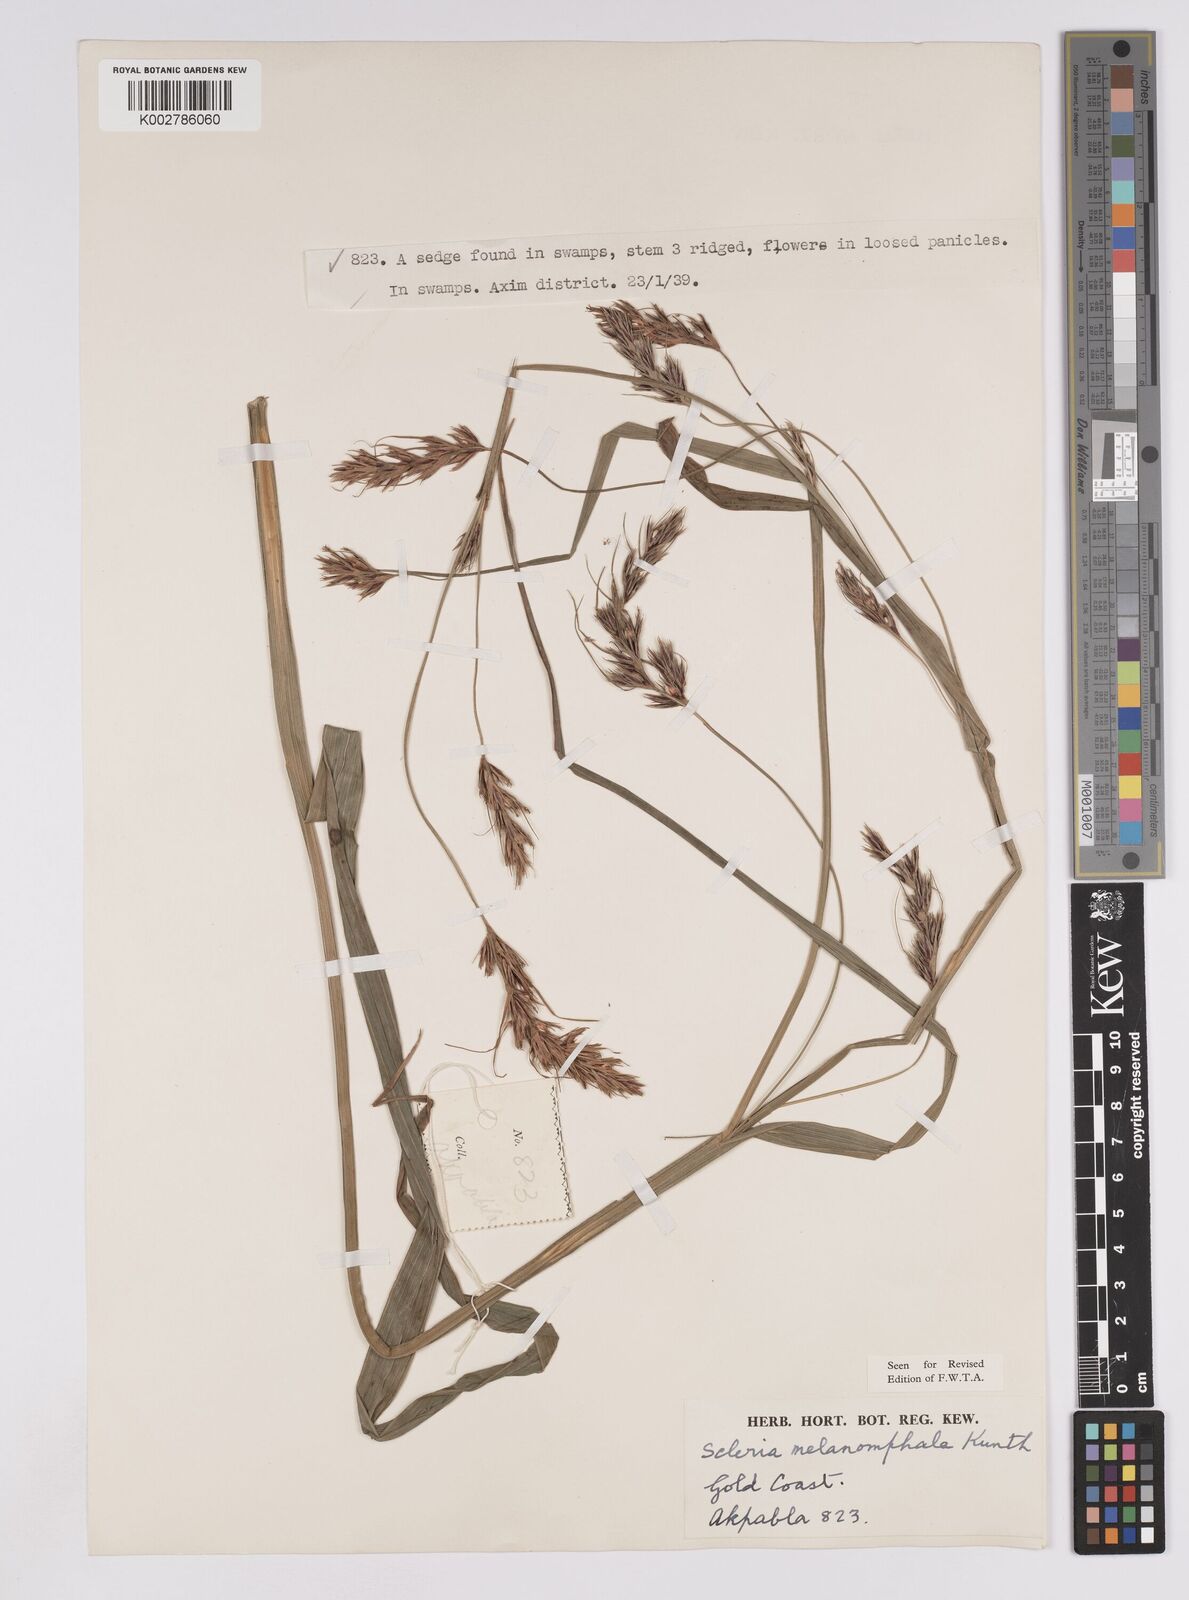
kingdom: Plantae
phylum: Tracheophyta
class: Liliopsida
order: Poales
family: Cyperaceae
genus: Scleria
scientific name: Scleria melanomphala
